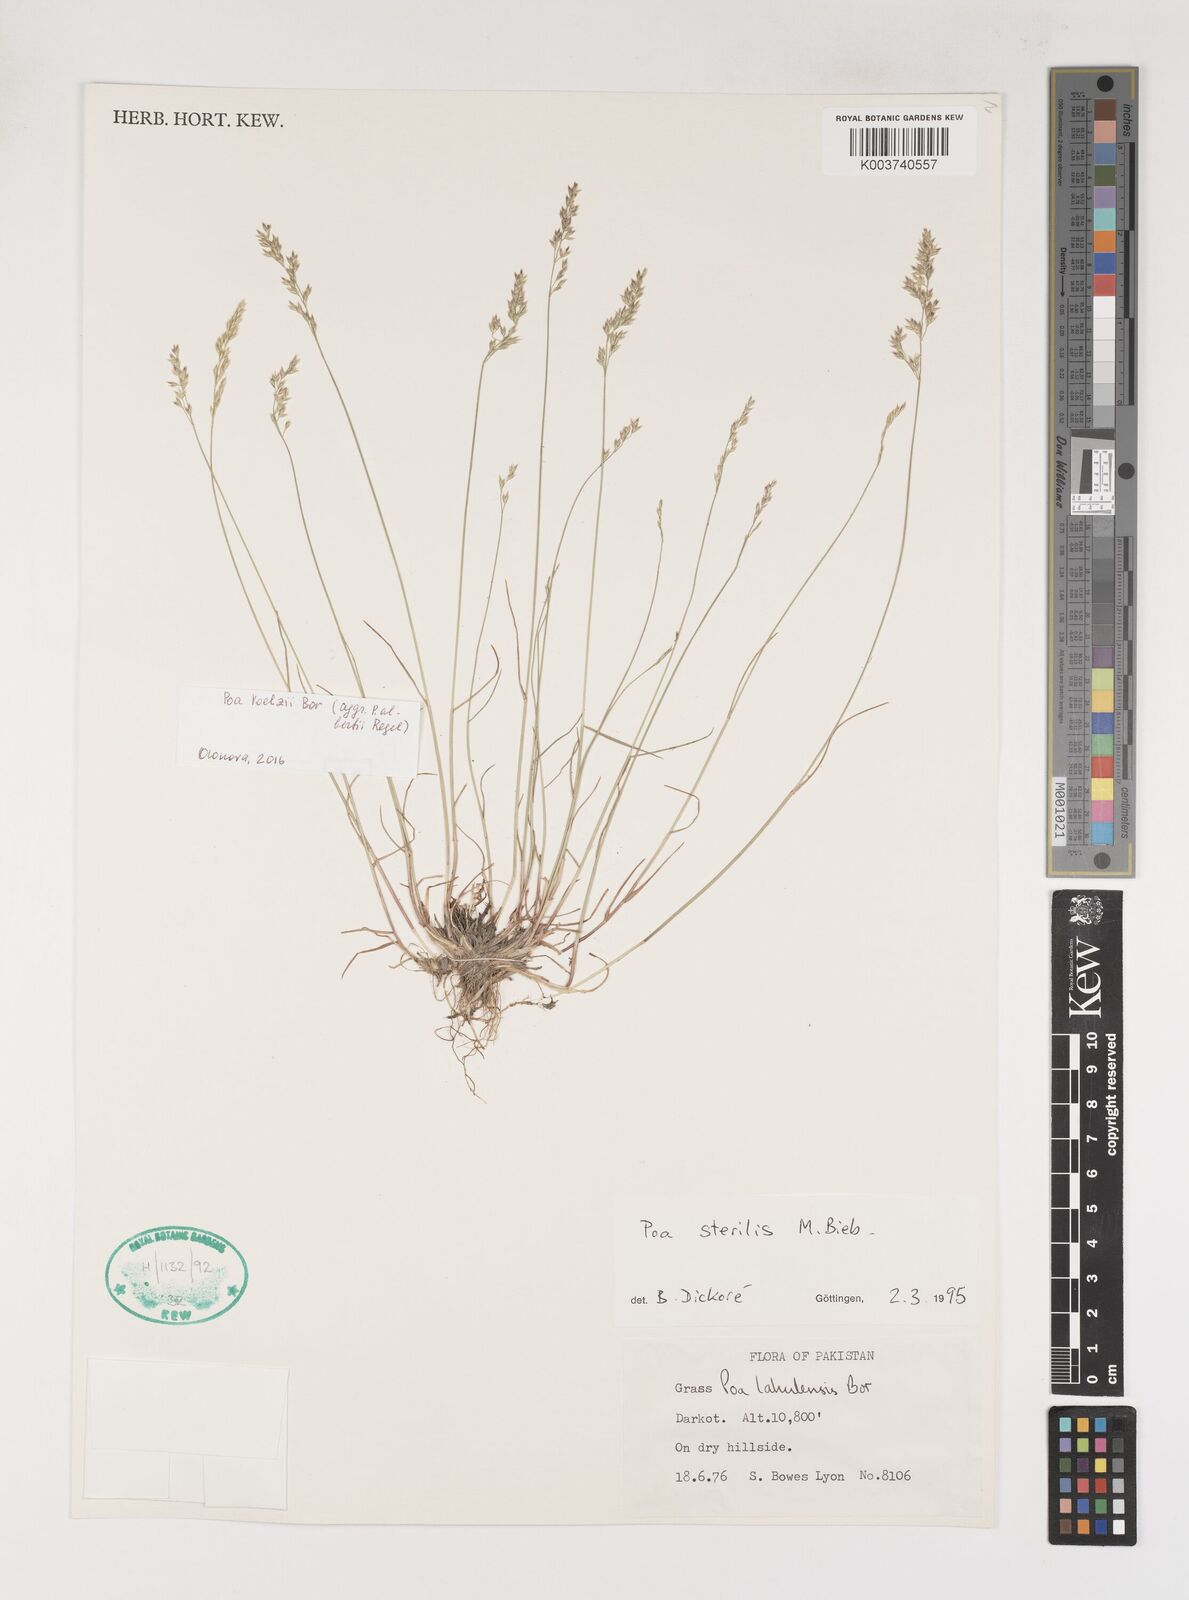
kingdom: Plantae
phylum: Tracheophyta
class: Liliopsida
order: Poales
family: Poaceae
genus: Poa
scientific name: Poa sterilis
